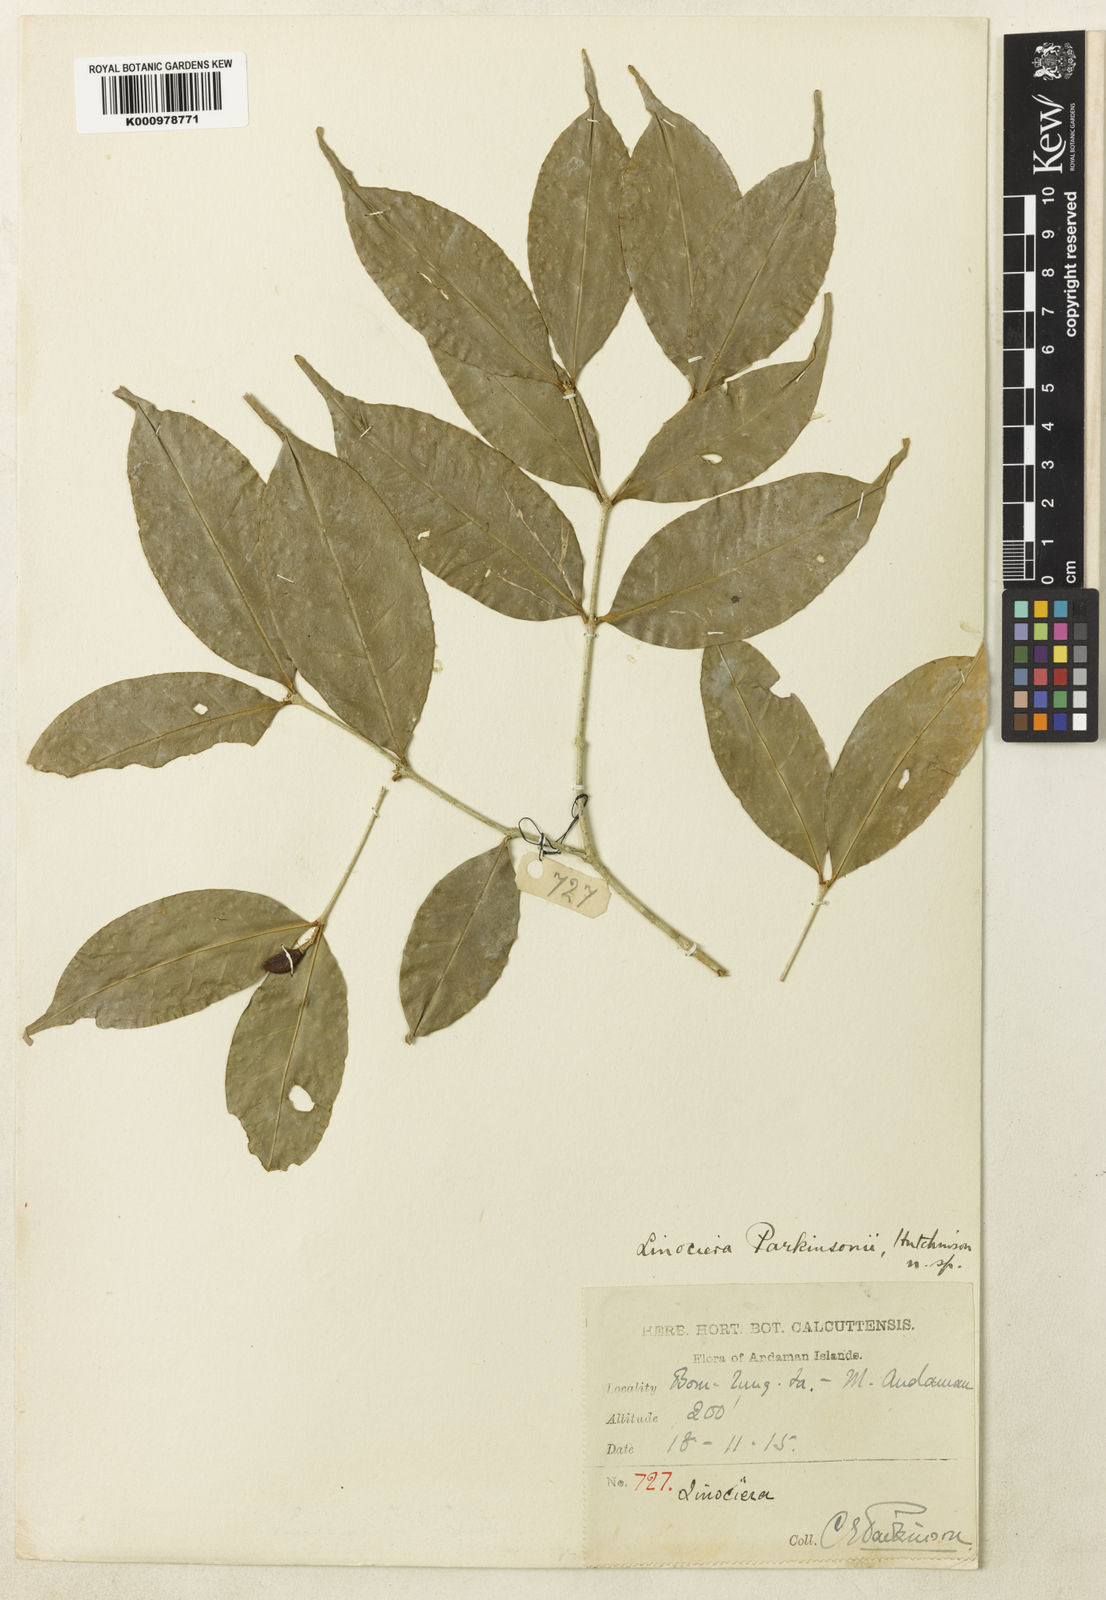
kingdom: Plantae
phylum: Tracheophyta
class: Magnoliopsida
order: Lamiales
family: Oleaceae
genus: Chionanthus
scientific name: Chionanthus parkinsonii
